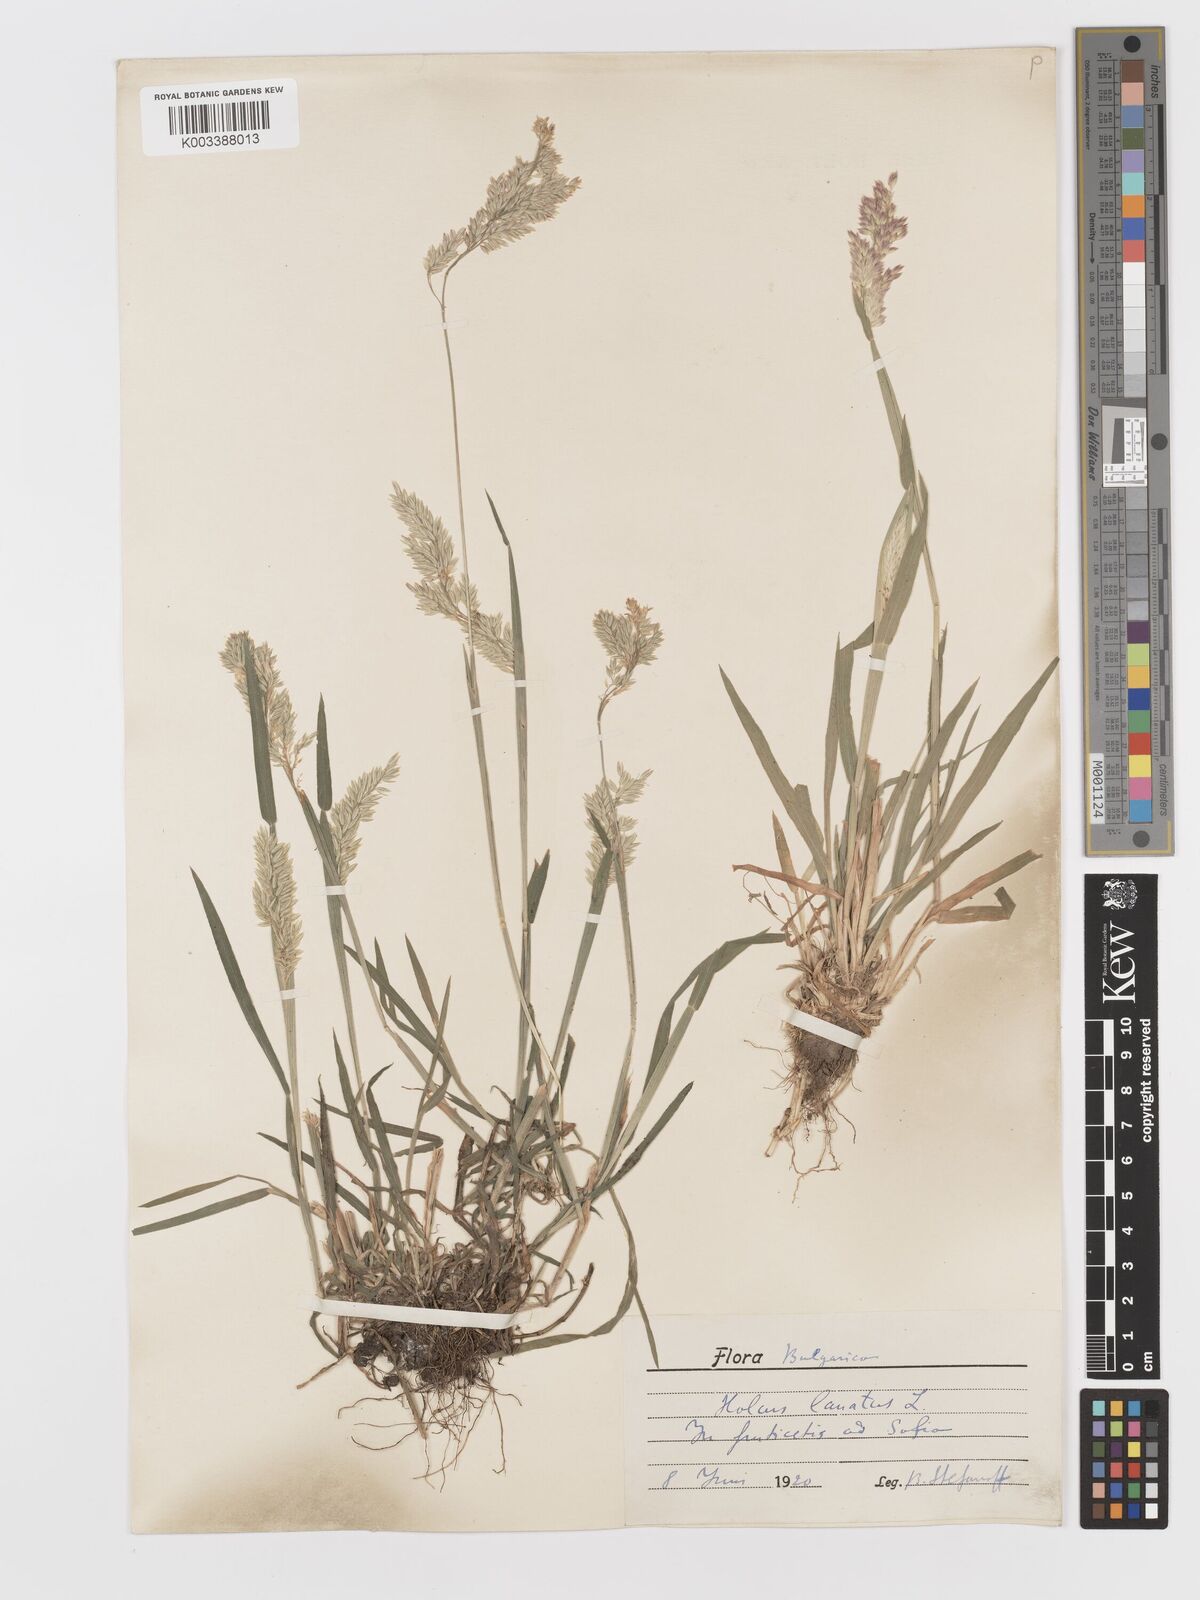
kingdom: Plantae
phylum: Tracheophyta
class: Liliopsida
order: Poales
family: Poaceae
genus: Holcus
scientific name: Holcus lanatus
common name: Yorkshire-fog
